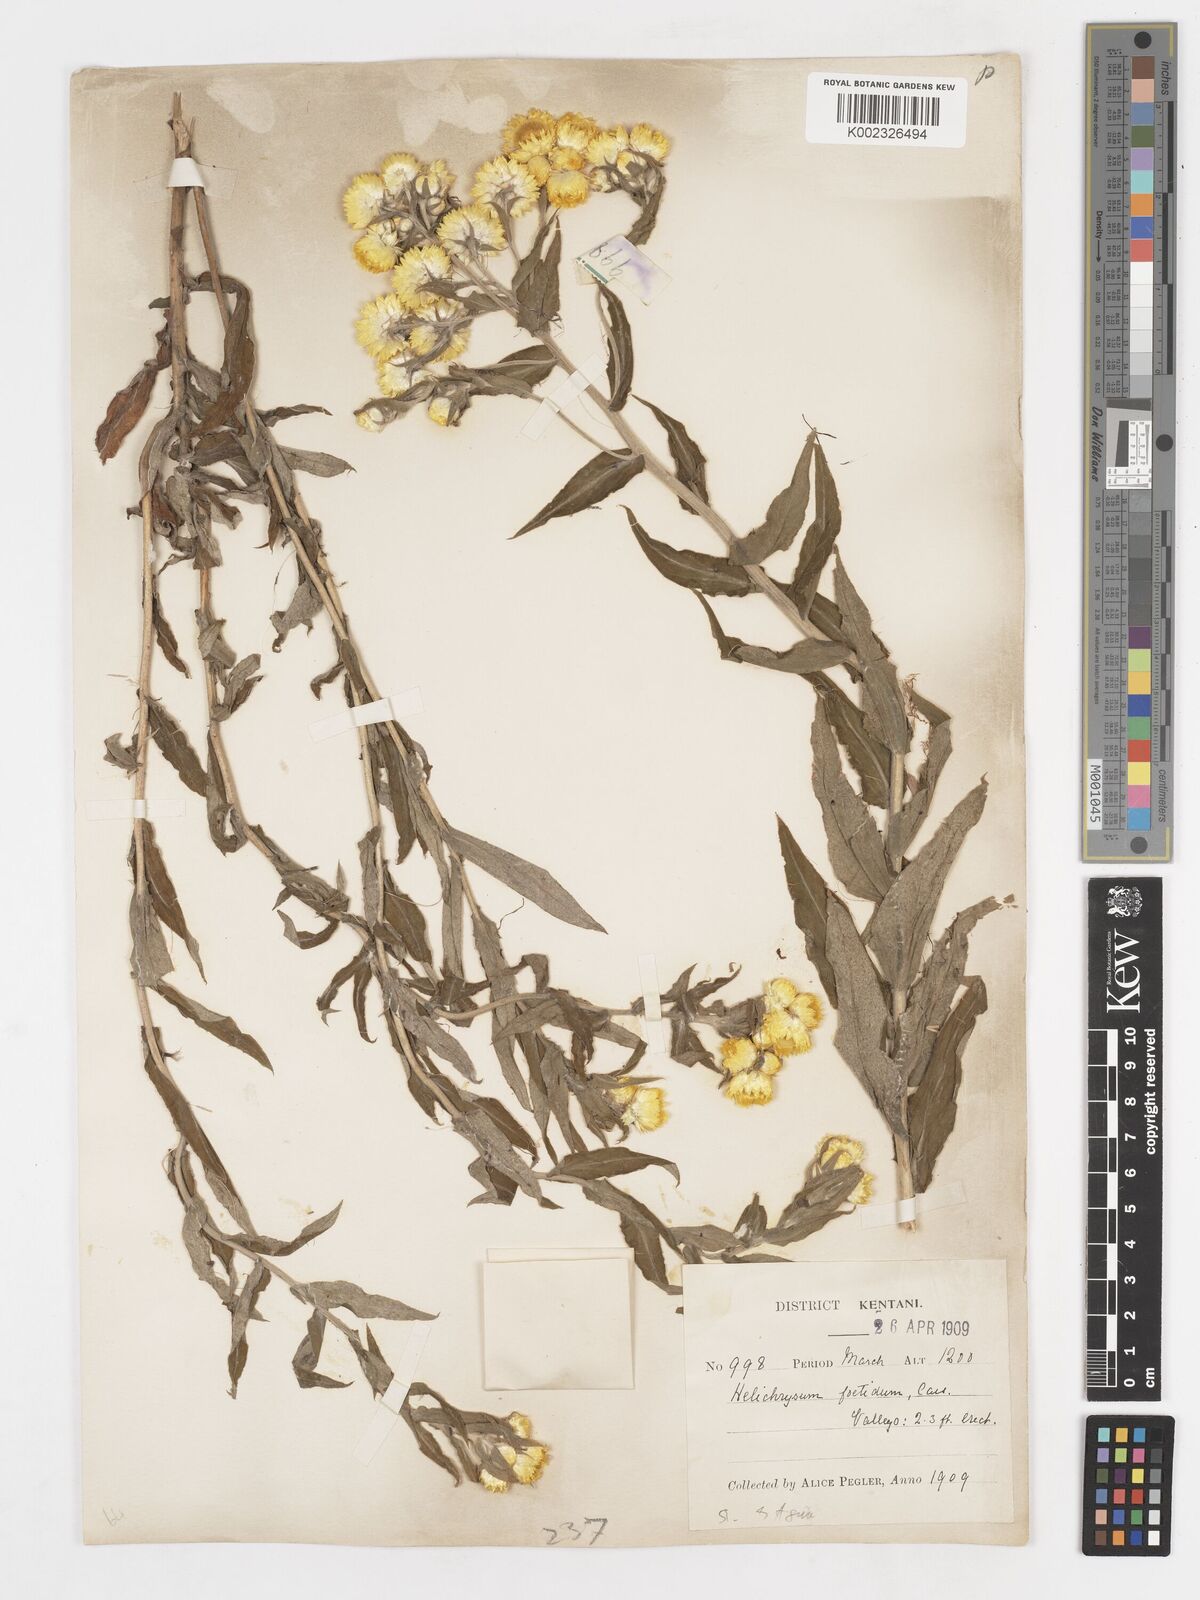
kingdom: Plantae
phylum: Tracheophyta
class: Magnoliopsida
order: Asterales
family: Asteraceae
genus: Helichrysum
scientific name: Helichrysum foetidum
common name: Stinking everlasting
